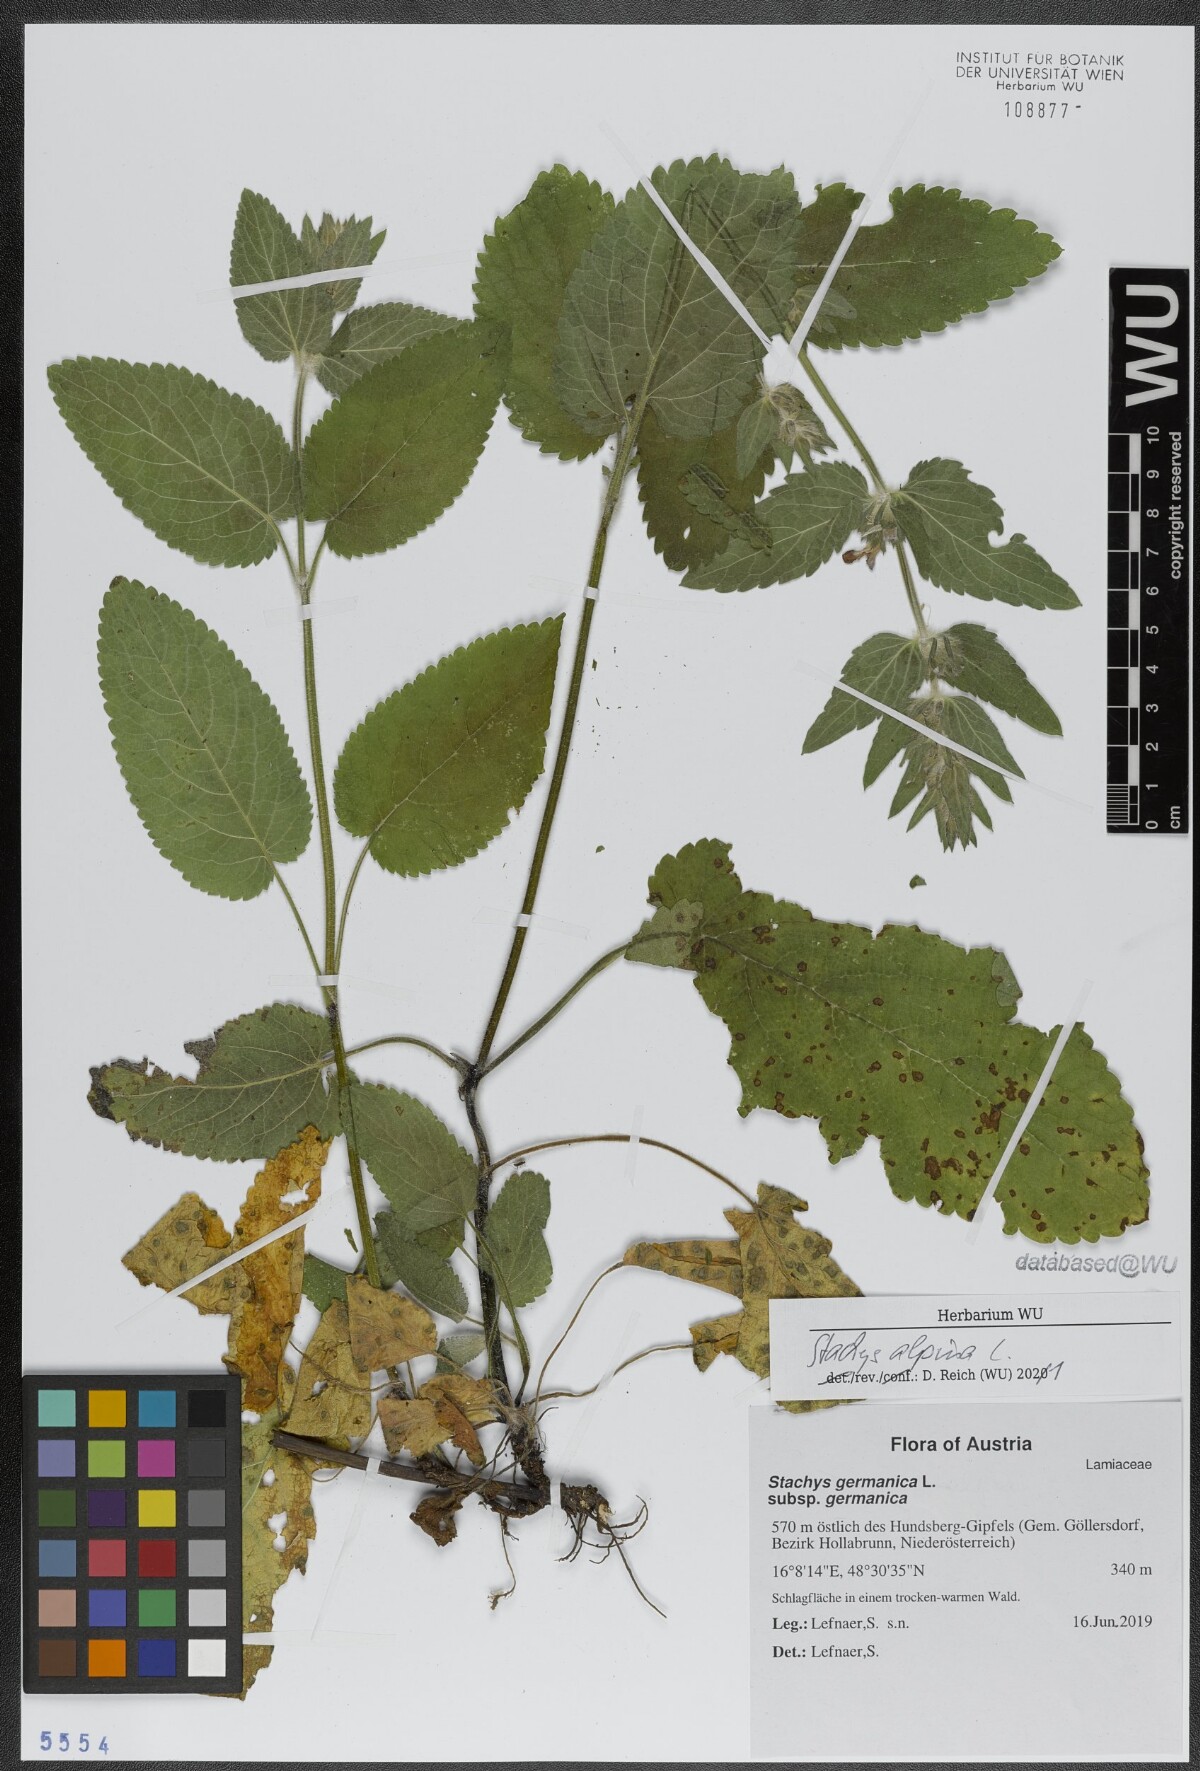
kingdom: Plantae
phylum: Tracheophyta
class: Magnoliopsida
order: Lamiales
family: Lamiaceae
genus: Stachys
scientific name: Stachys alpina
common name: Limestone woundwort
